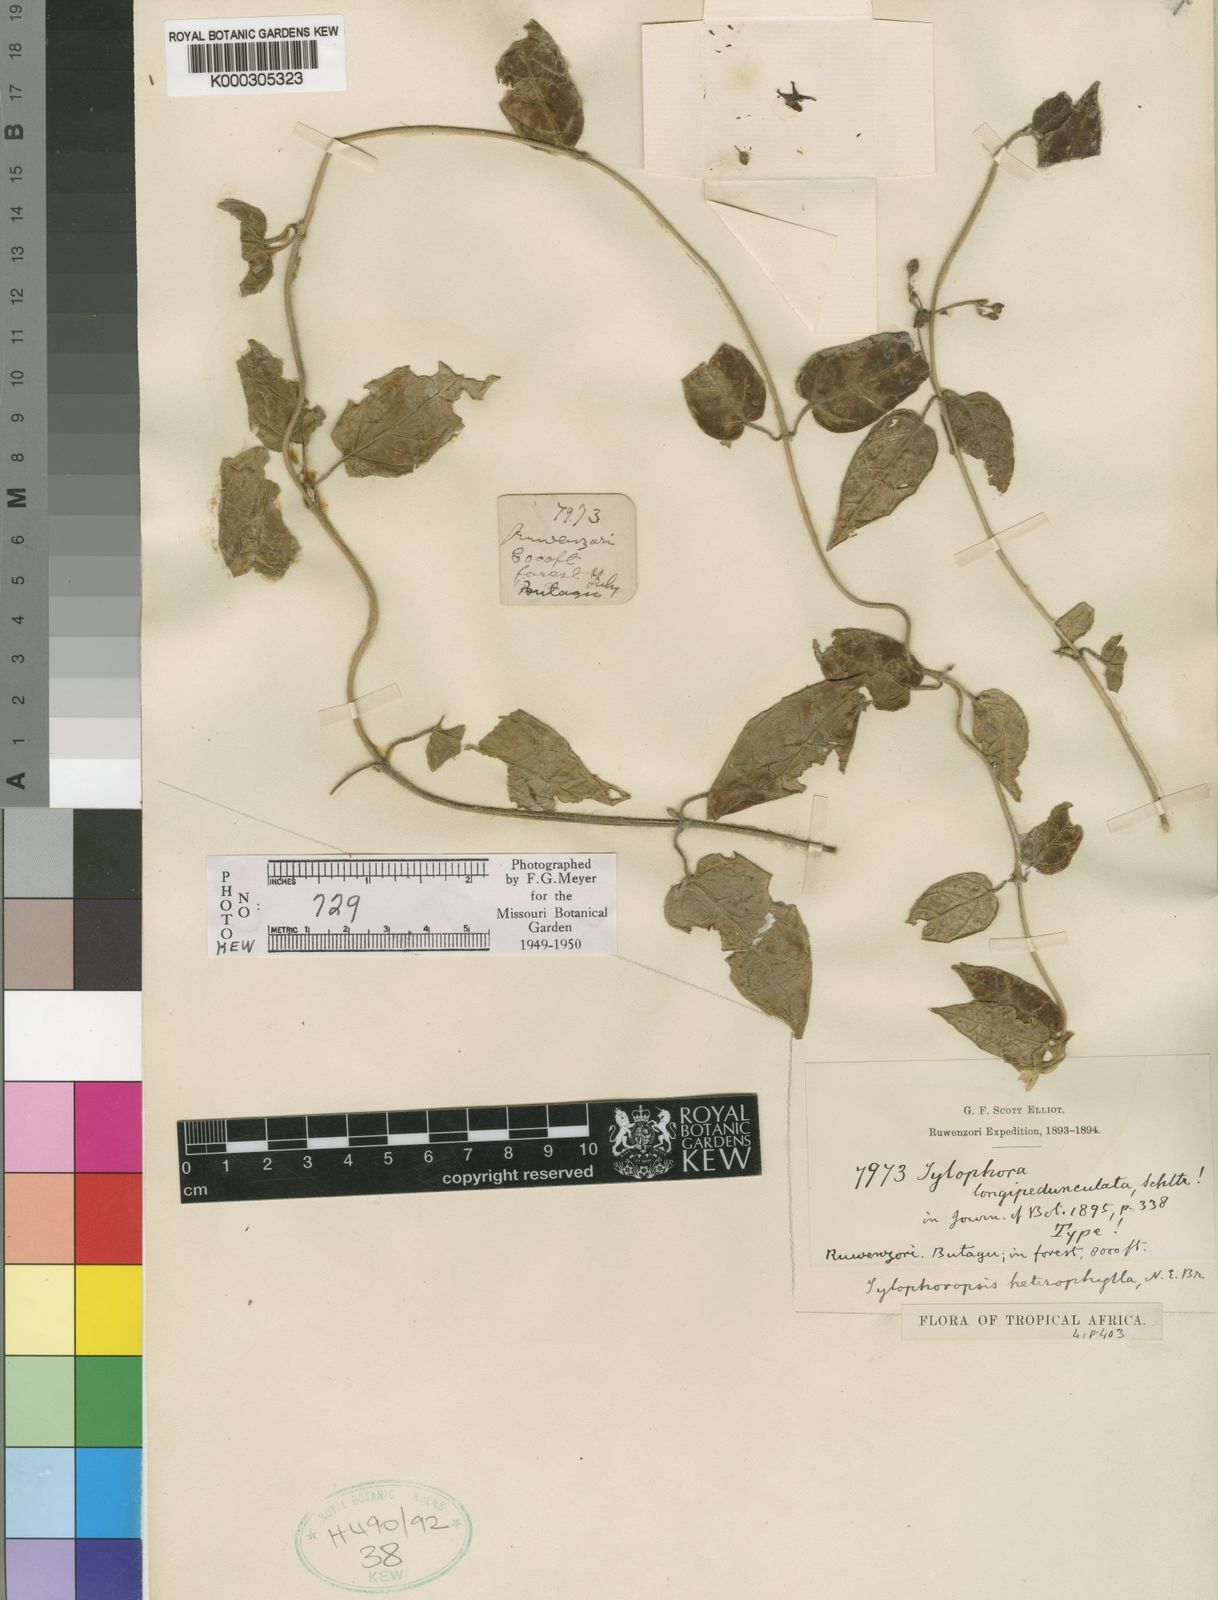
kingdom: Plantae
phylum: Tracheophyta
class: Magnoliopsida
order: Gentianales
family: Apocynaceae
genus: Vincetoxicum
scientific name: Vincetoxicum heterophyllum
